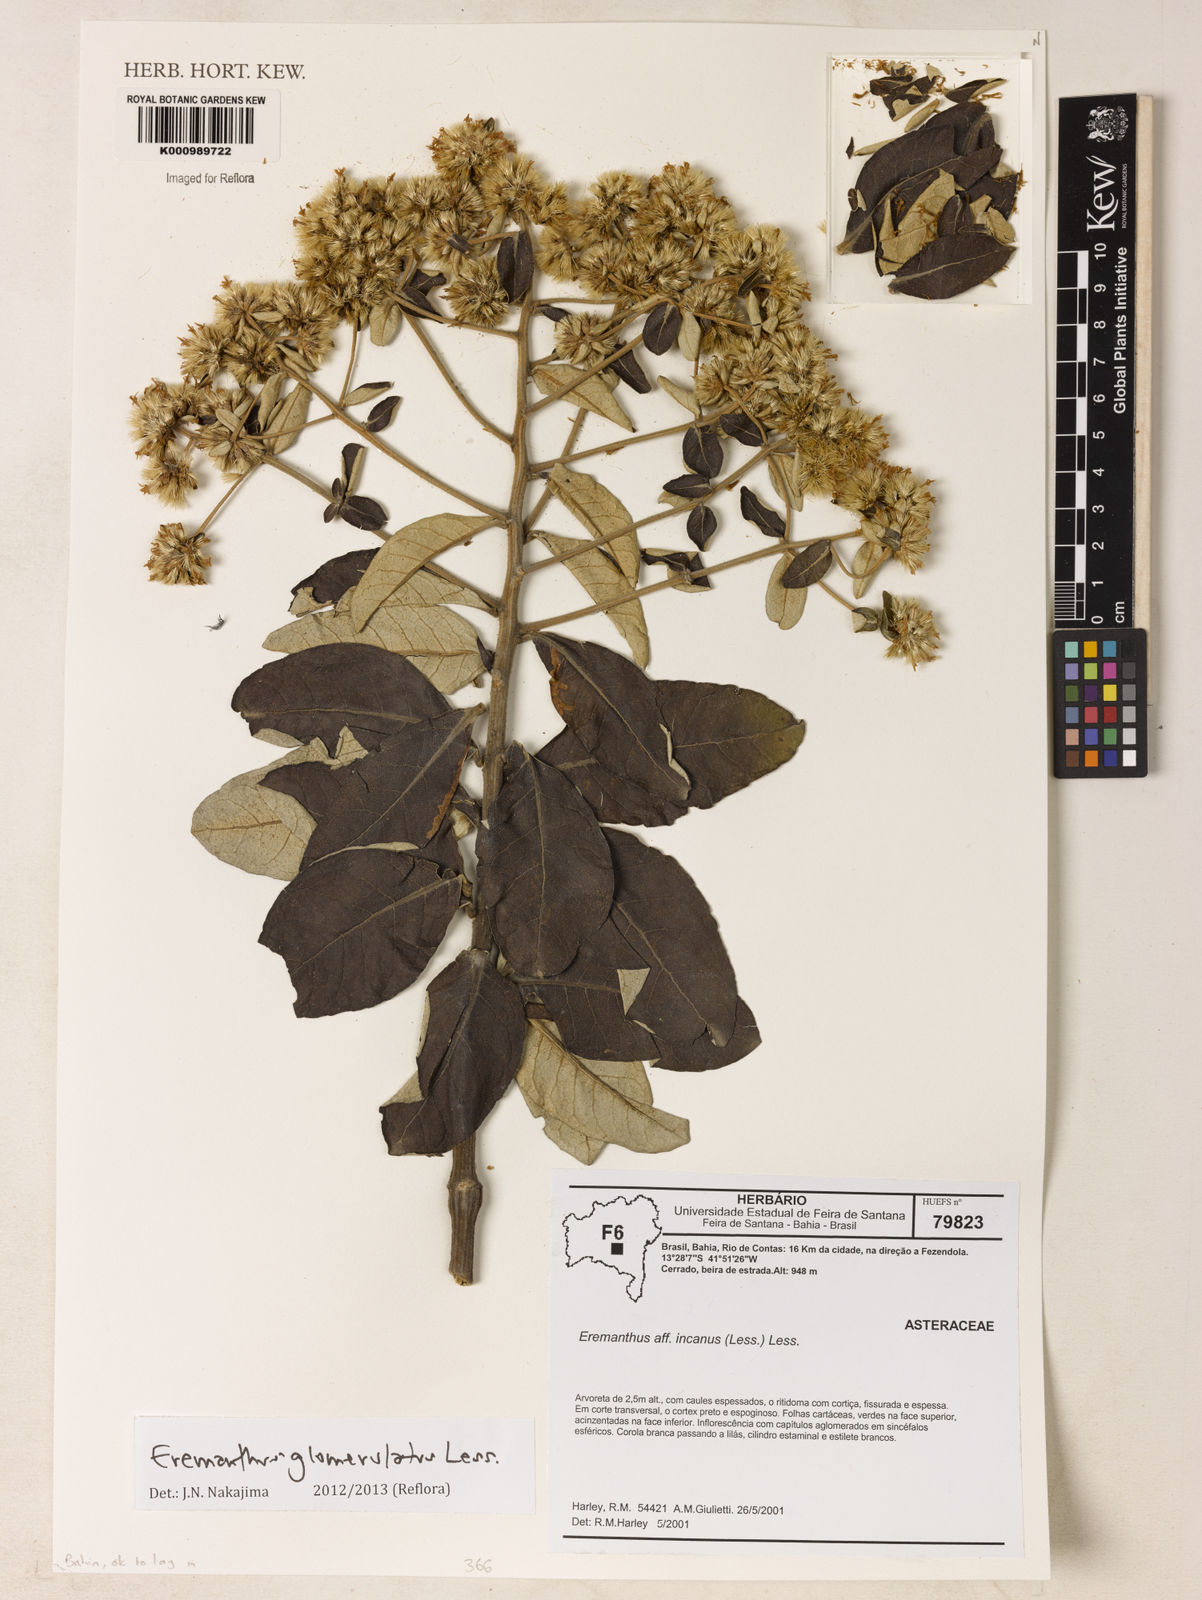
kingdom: Plantae
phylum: Tracheophyta
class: Magnoliopsida
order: Asterales
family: Asteraceae
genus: Eremanthus
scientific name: Eremanthus glomerulatus
